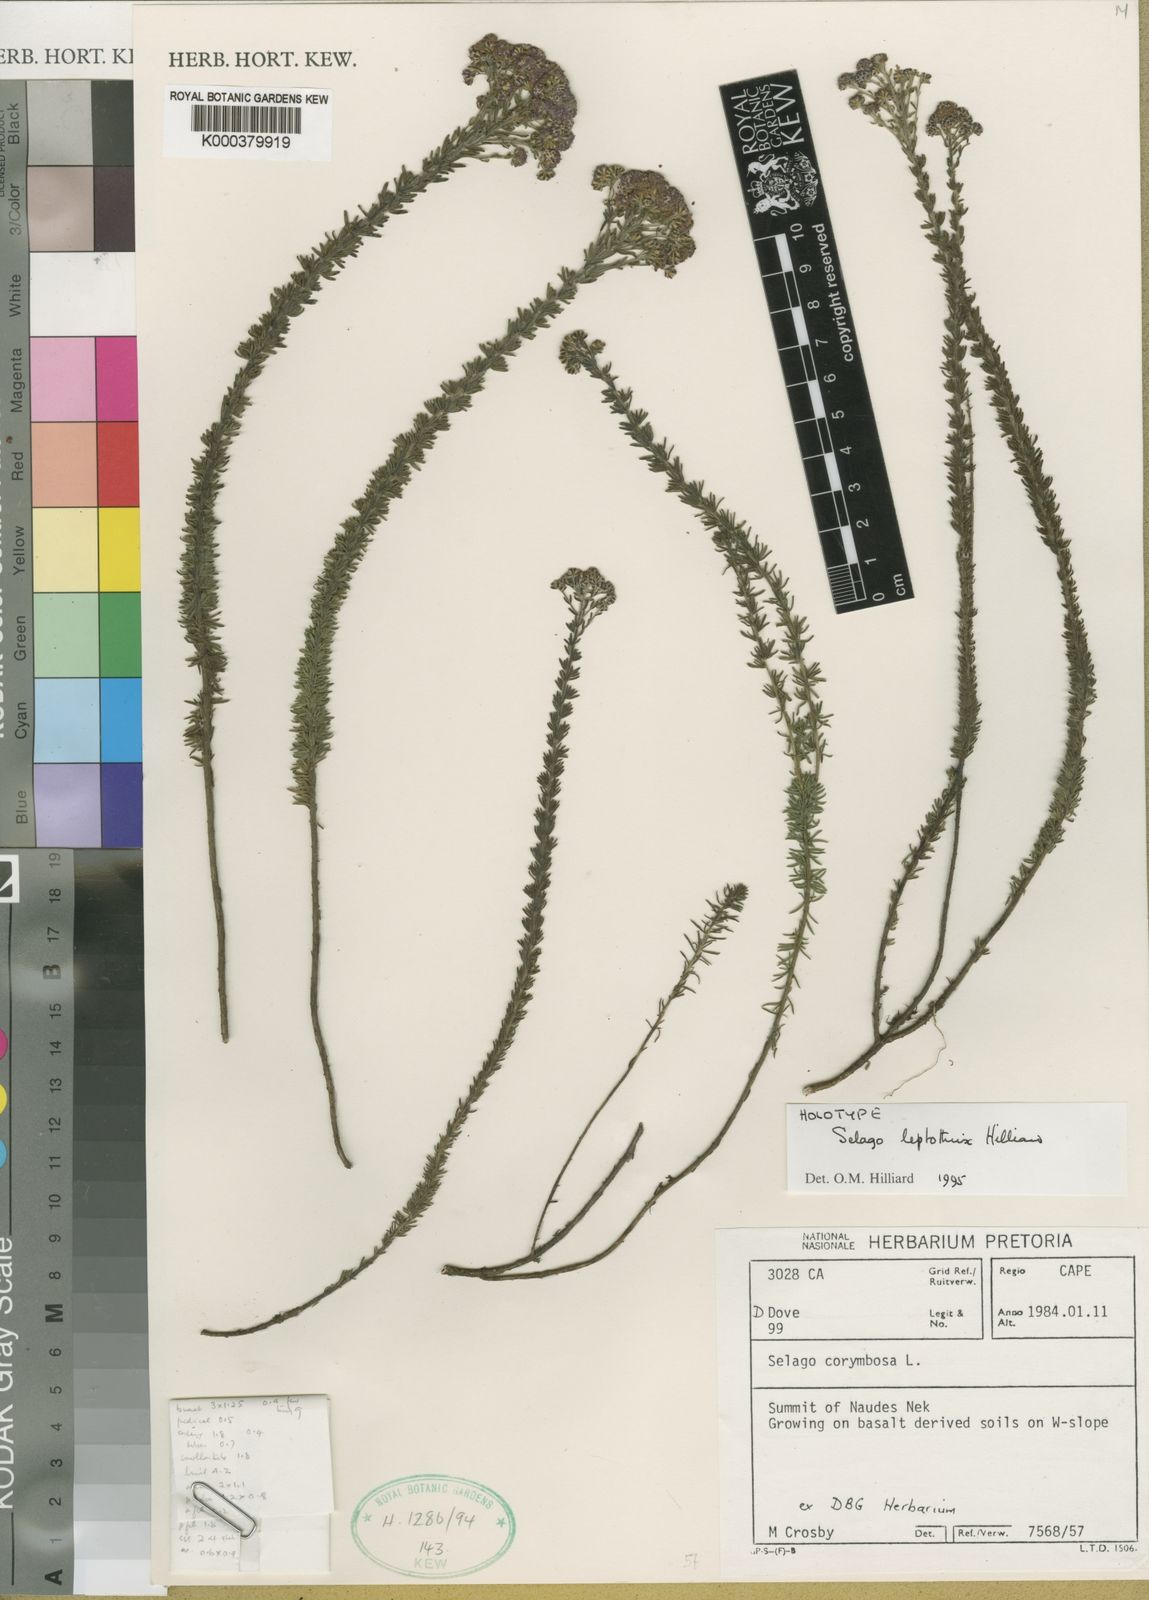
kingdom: Plantae
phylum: Tracheophyta
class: Magnoliopsida
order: Lamiales
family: Scrophulariaceae
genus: Selago
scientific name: Selago leptothrix
